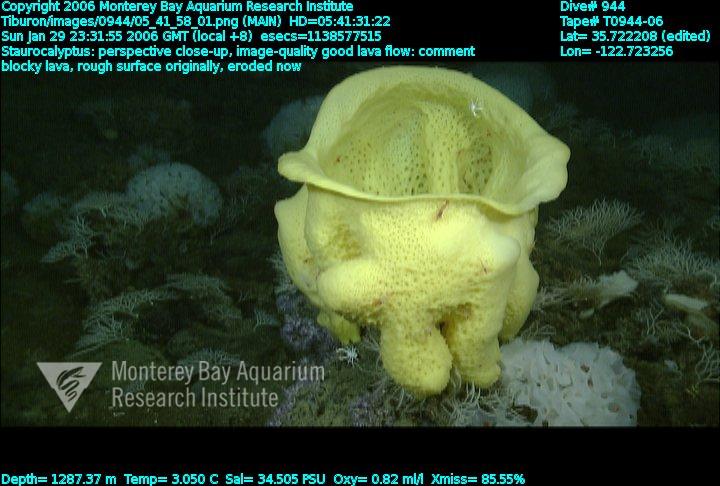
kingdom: Animalia
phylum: Porifera
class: Hexactinellida
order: Lyssacinosida
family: Rossellidae
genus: Staurocalyptus
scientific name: Staurocalyptus
